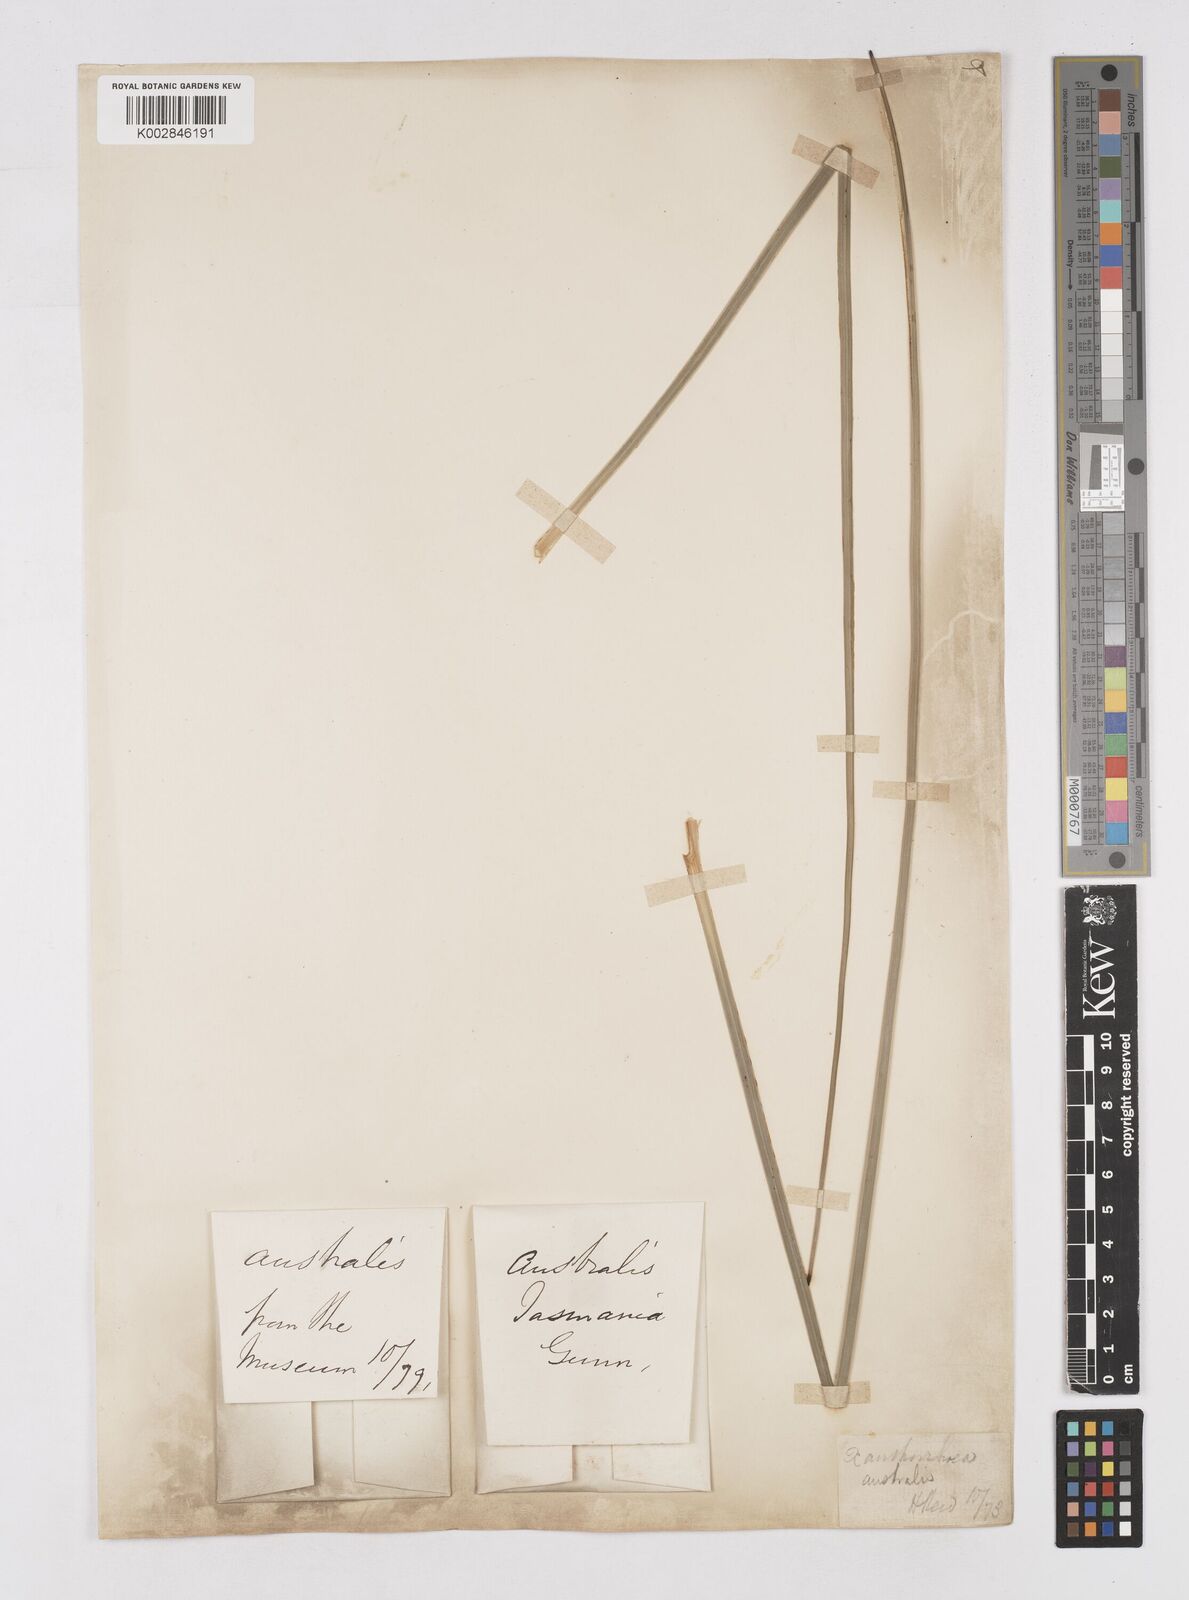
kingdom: Plantae
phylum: Tracheophyta
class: Liliopsida
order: Asparagales
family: Asphodelaceae
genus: Xanthorrhoea
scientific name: Xanthorrhoea australis
